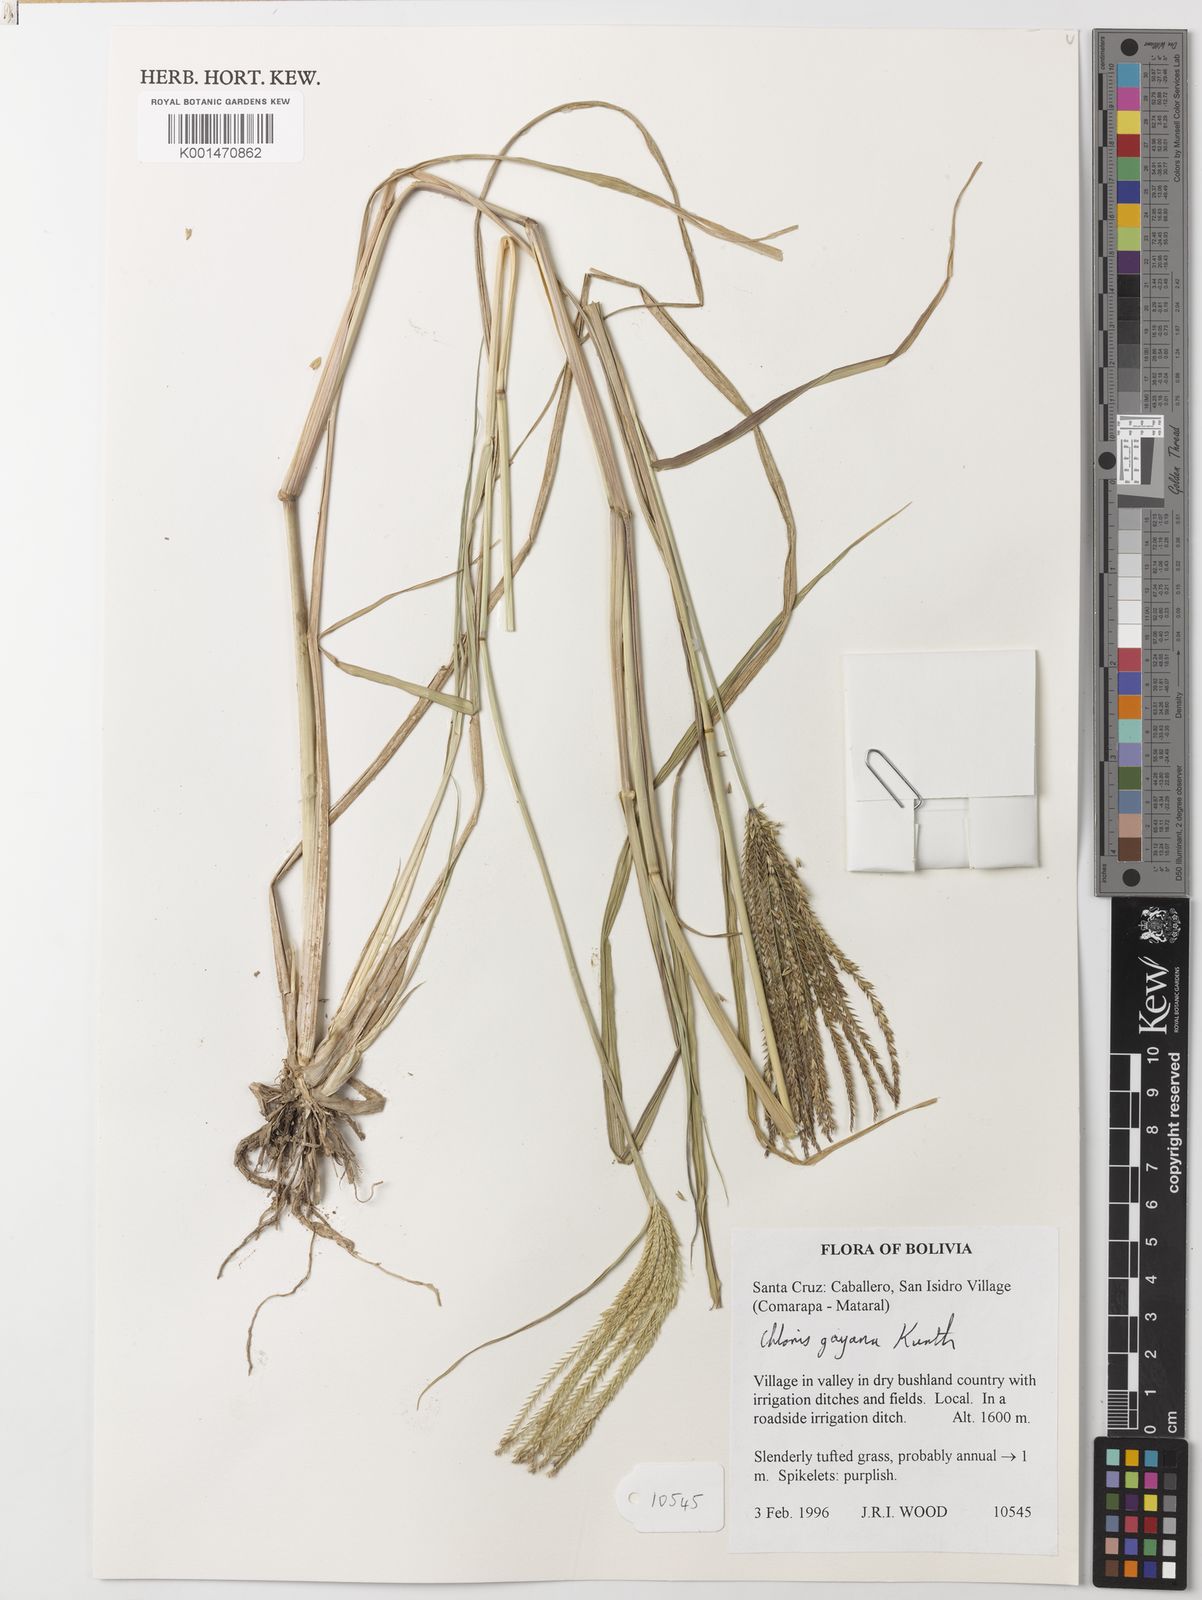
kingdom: Plantae
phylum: Tracheophyta
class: Liliopsida
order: Poales
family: Poaceae
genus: Chloris
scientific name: Chloris gayana
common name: Rhodes grass
